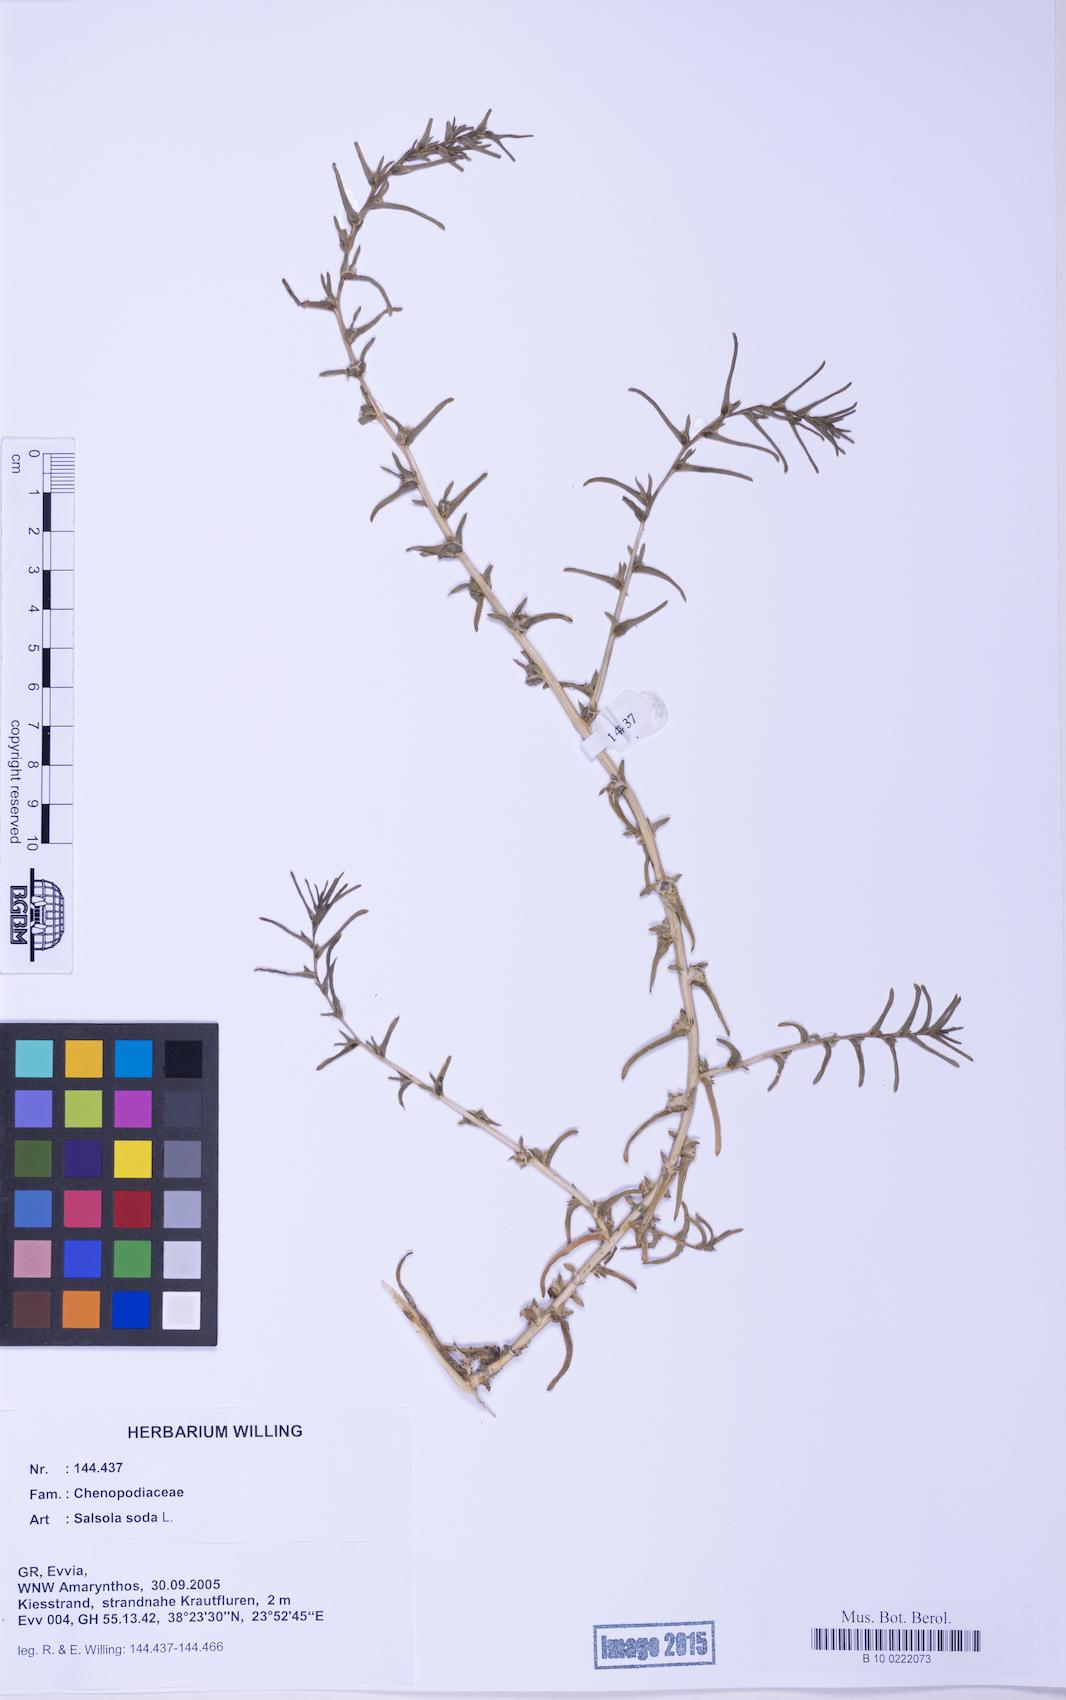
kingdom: Plantae
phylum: Tracheophyta
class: Magnoliopsida
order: Caryophyllales
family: Amaranthaceae
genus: Soda
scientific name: Soda inermis
